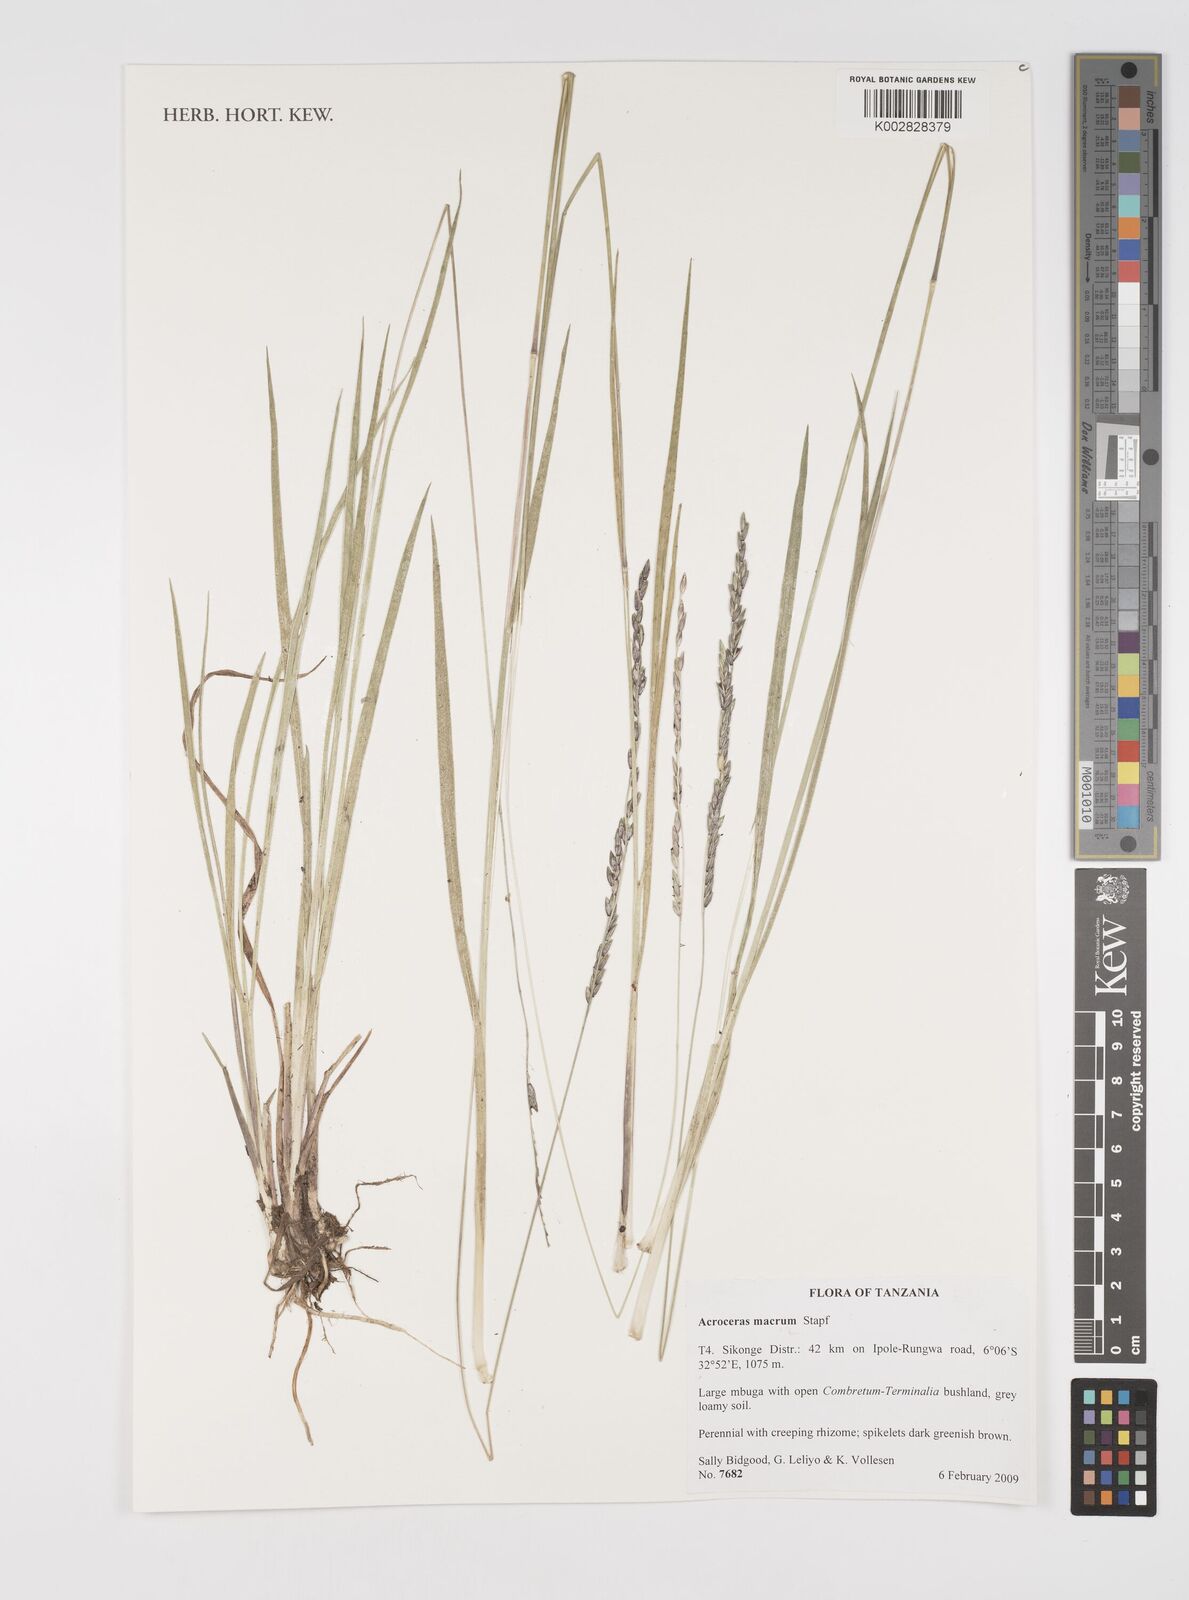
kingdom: Plantae
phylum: Tracheophyta
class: Liliopsida
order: Poales
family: Poaceae
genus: Acroceras
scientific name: Acroceras macrum
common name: Nyl grass
